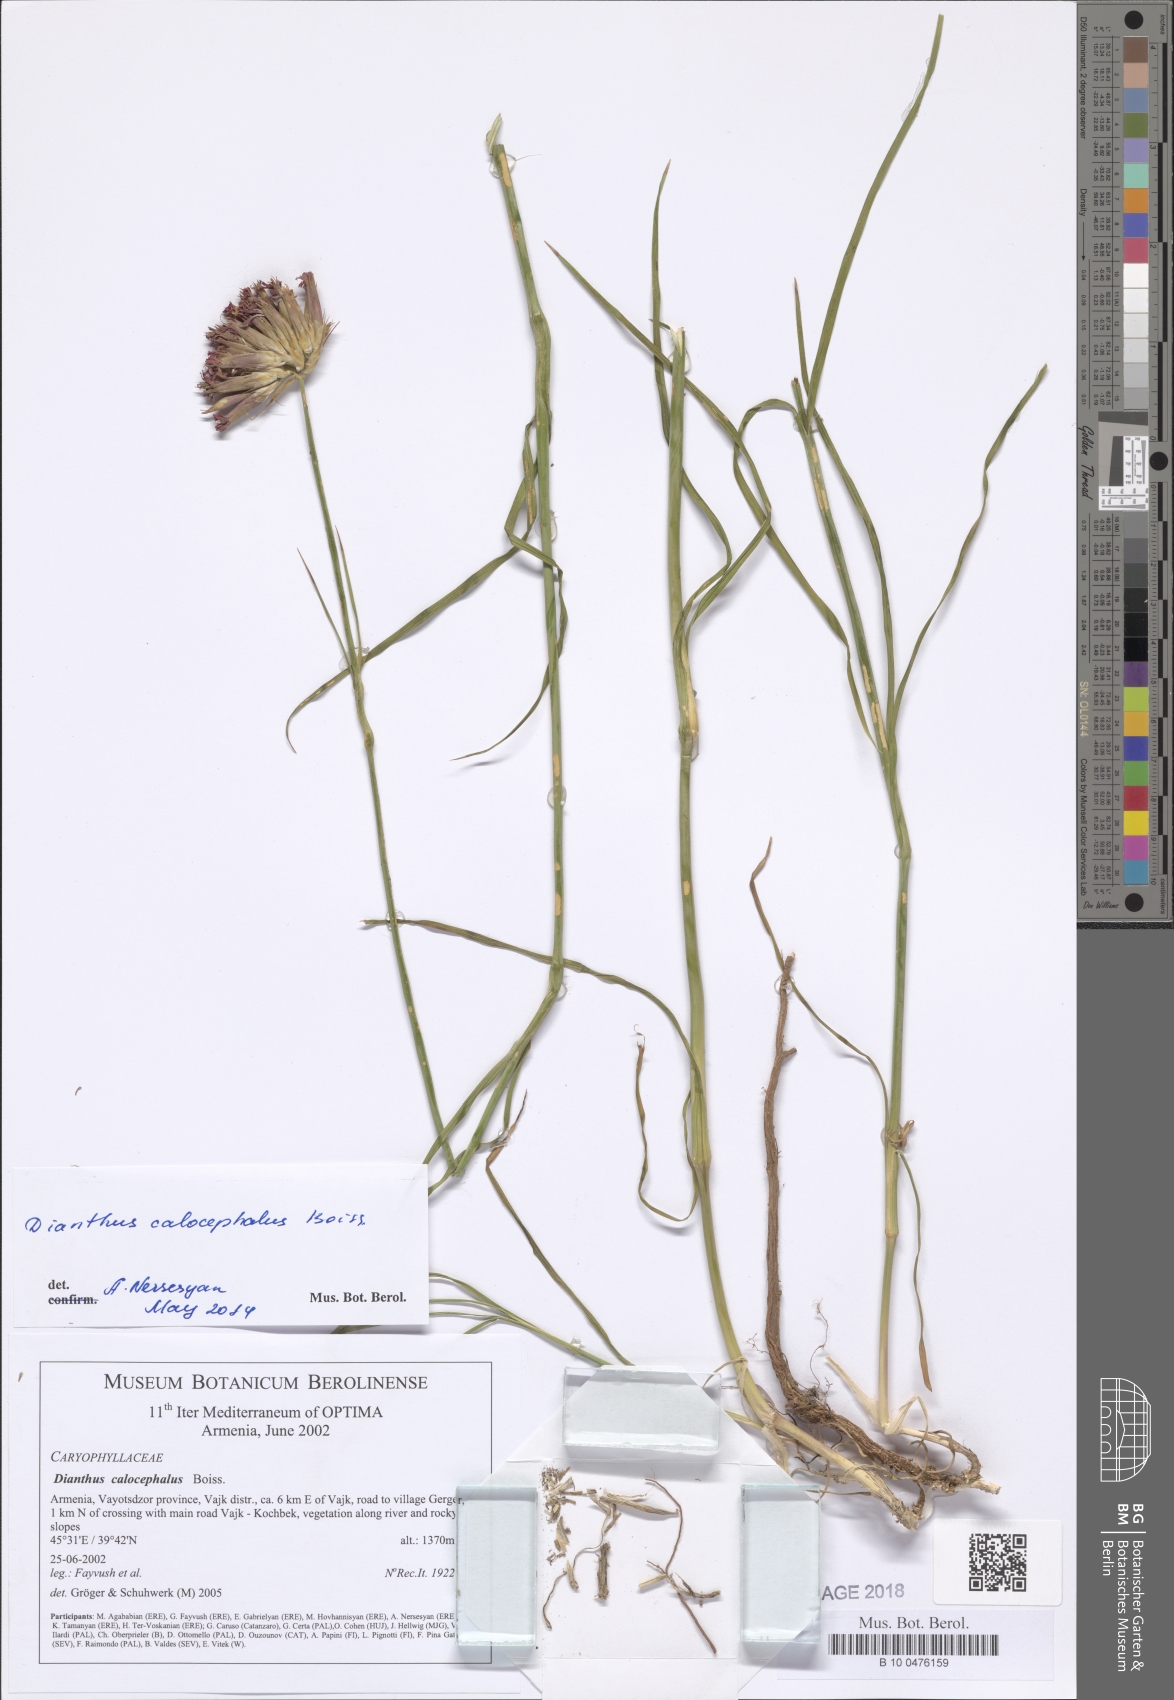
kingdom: Plantae
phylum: Tracheophyta
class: Magnoliopsida
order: Caryophyllales
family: Caryophyllaceae
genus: Dianthus
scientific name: Dianthus cruentus
